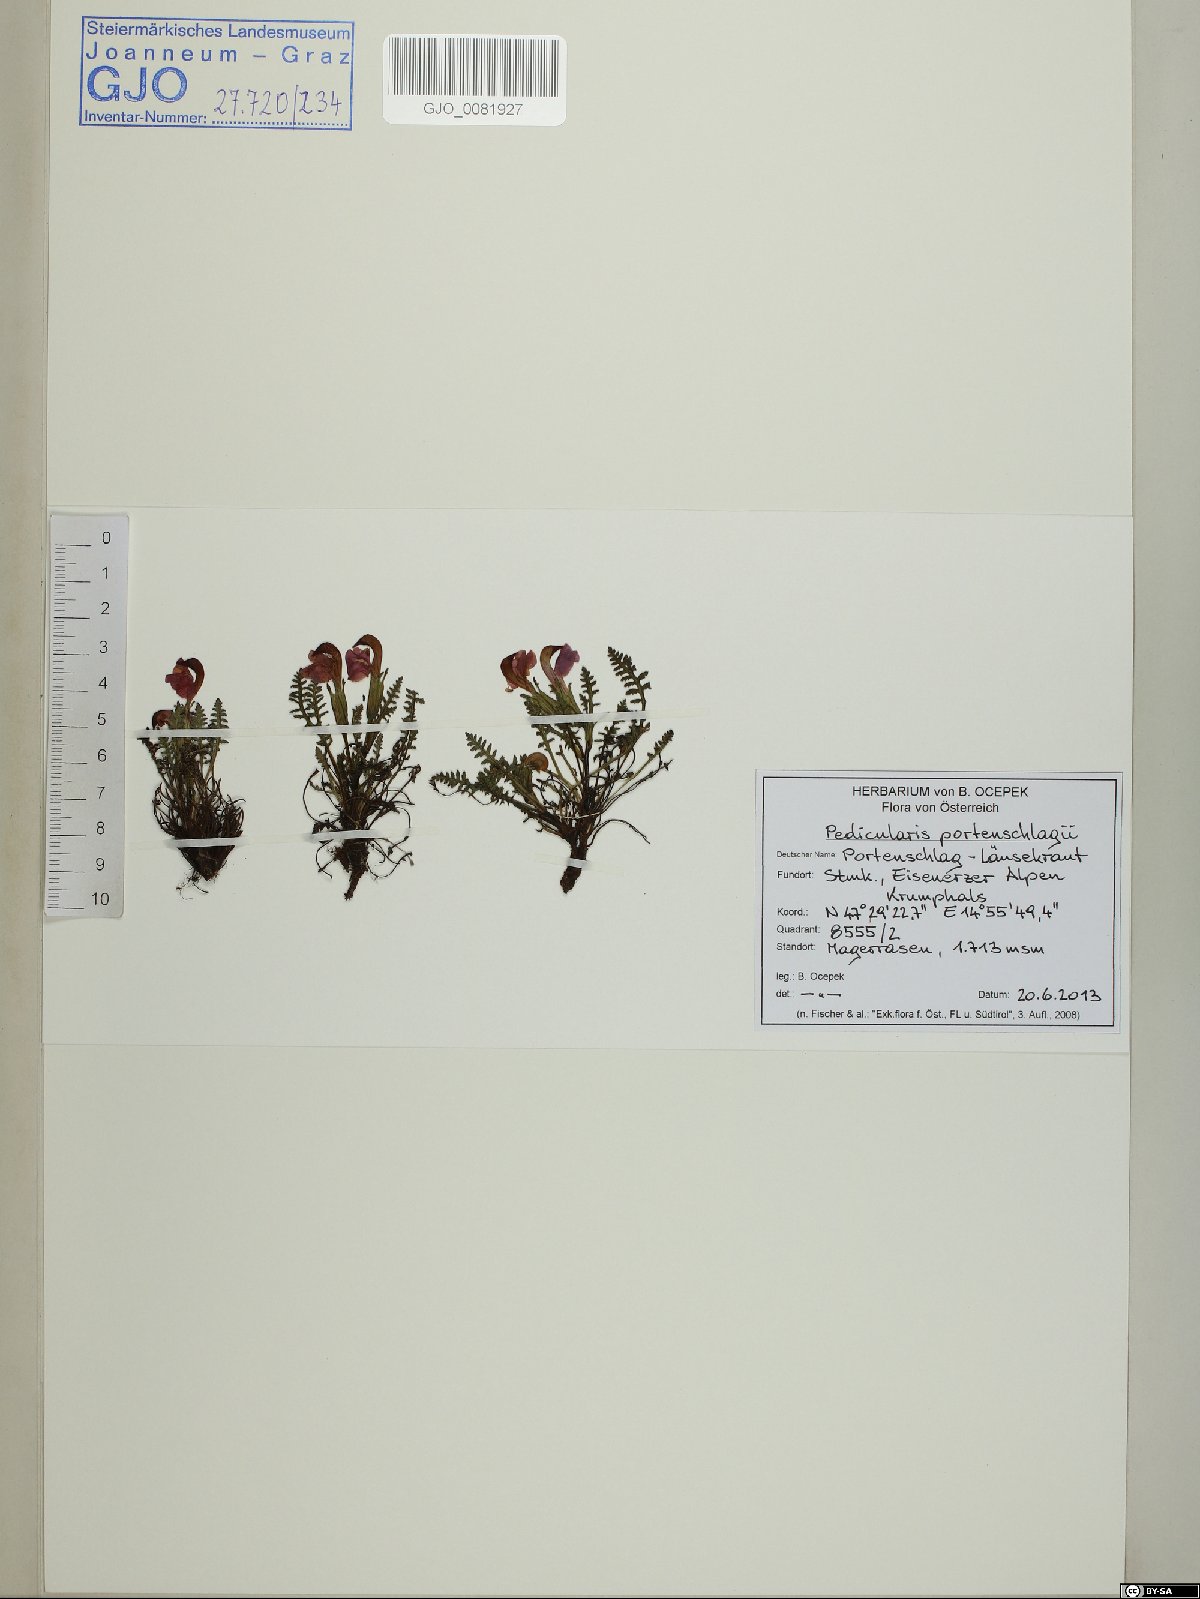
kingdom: Plantae
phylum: Tracheophyta
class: Magnoliopsida
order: Lamiales
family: Orobanchaceae
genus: Pedicularis
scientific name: Pedicularis portenschlagii
